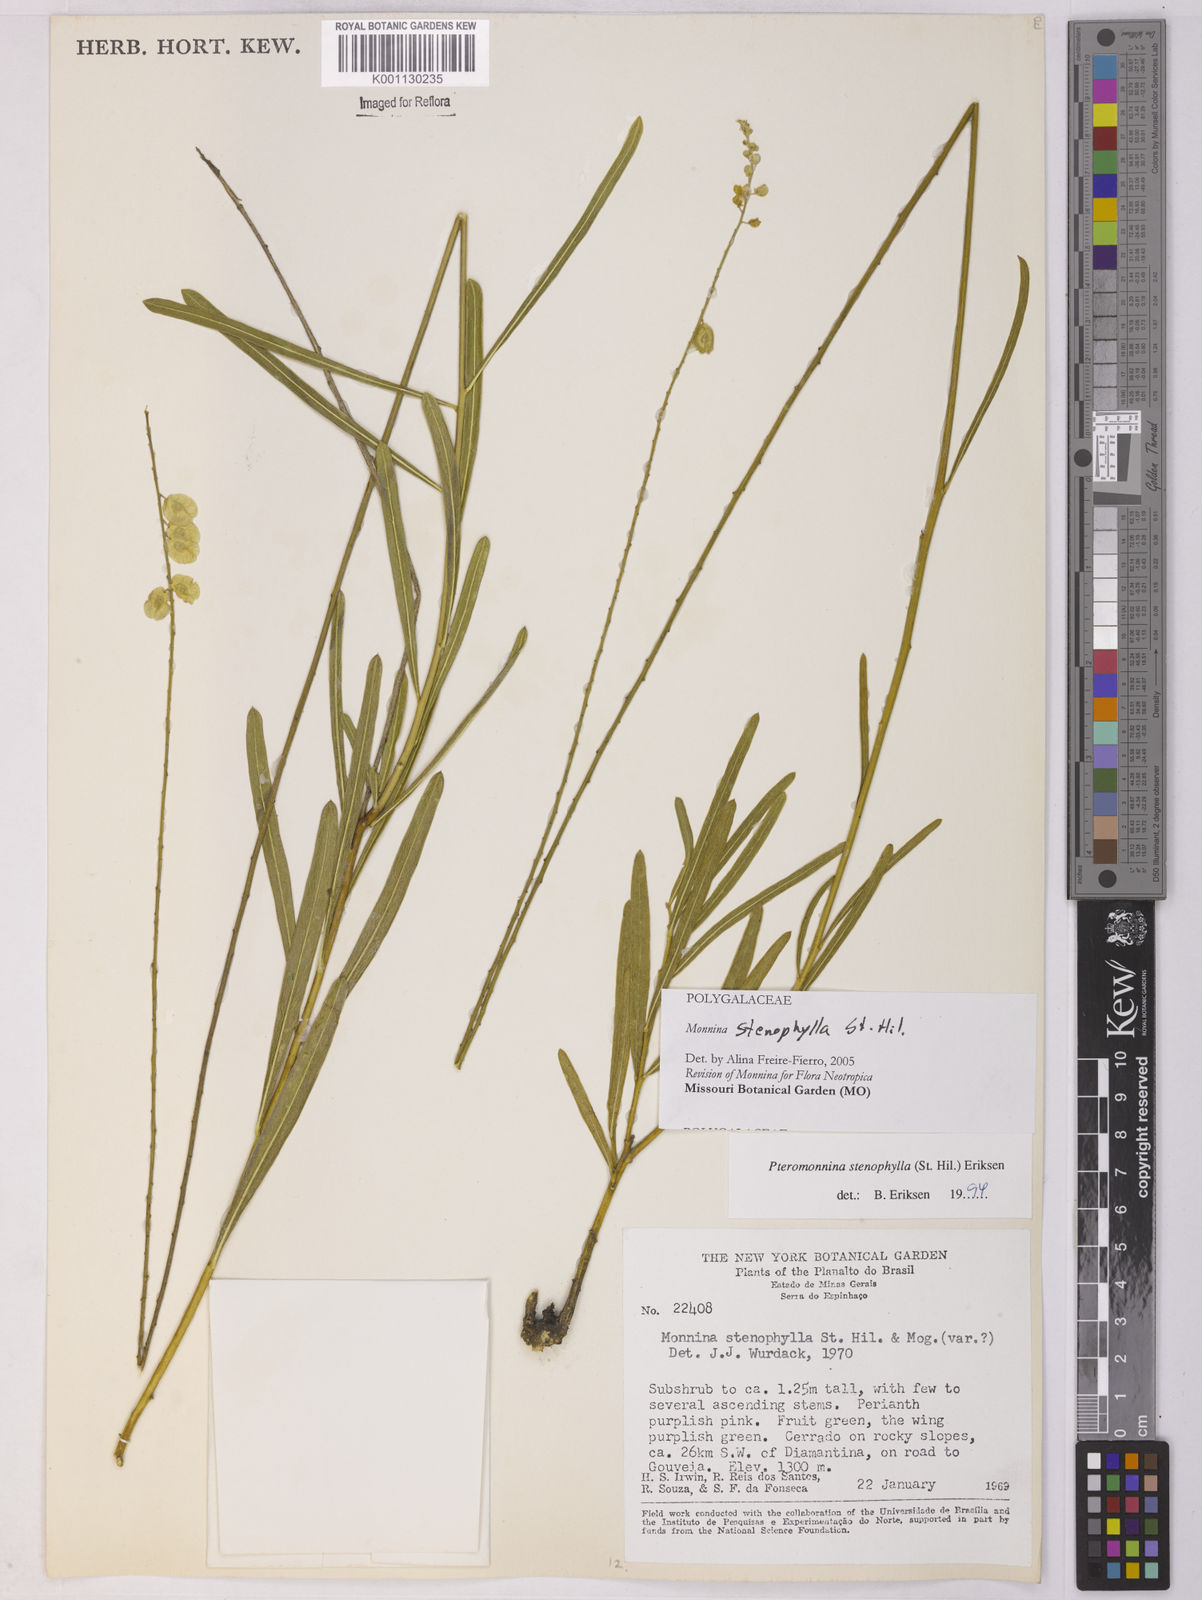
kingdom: Plantae
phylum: Tracheophyta
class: Magnoliopsida
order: Fabales
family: Polygalaceae
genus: Monnina
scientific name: Monnina stenophylla
